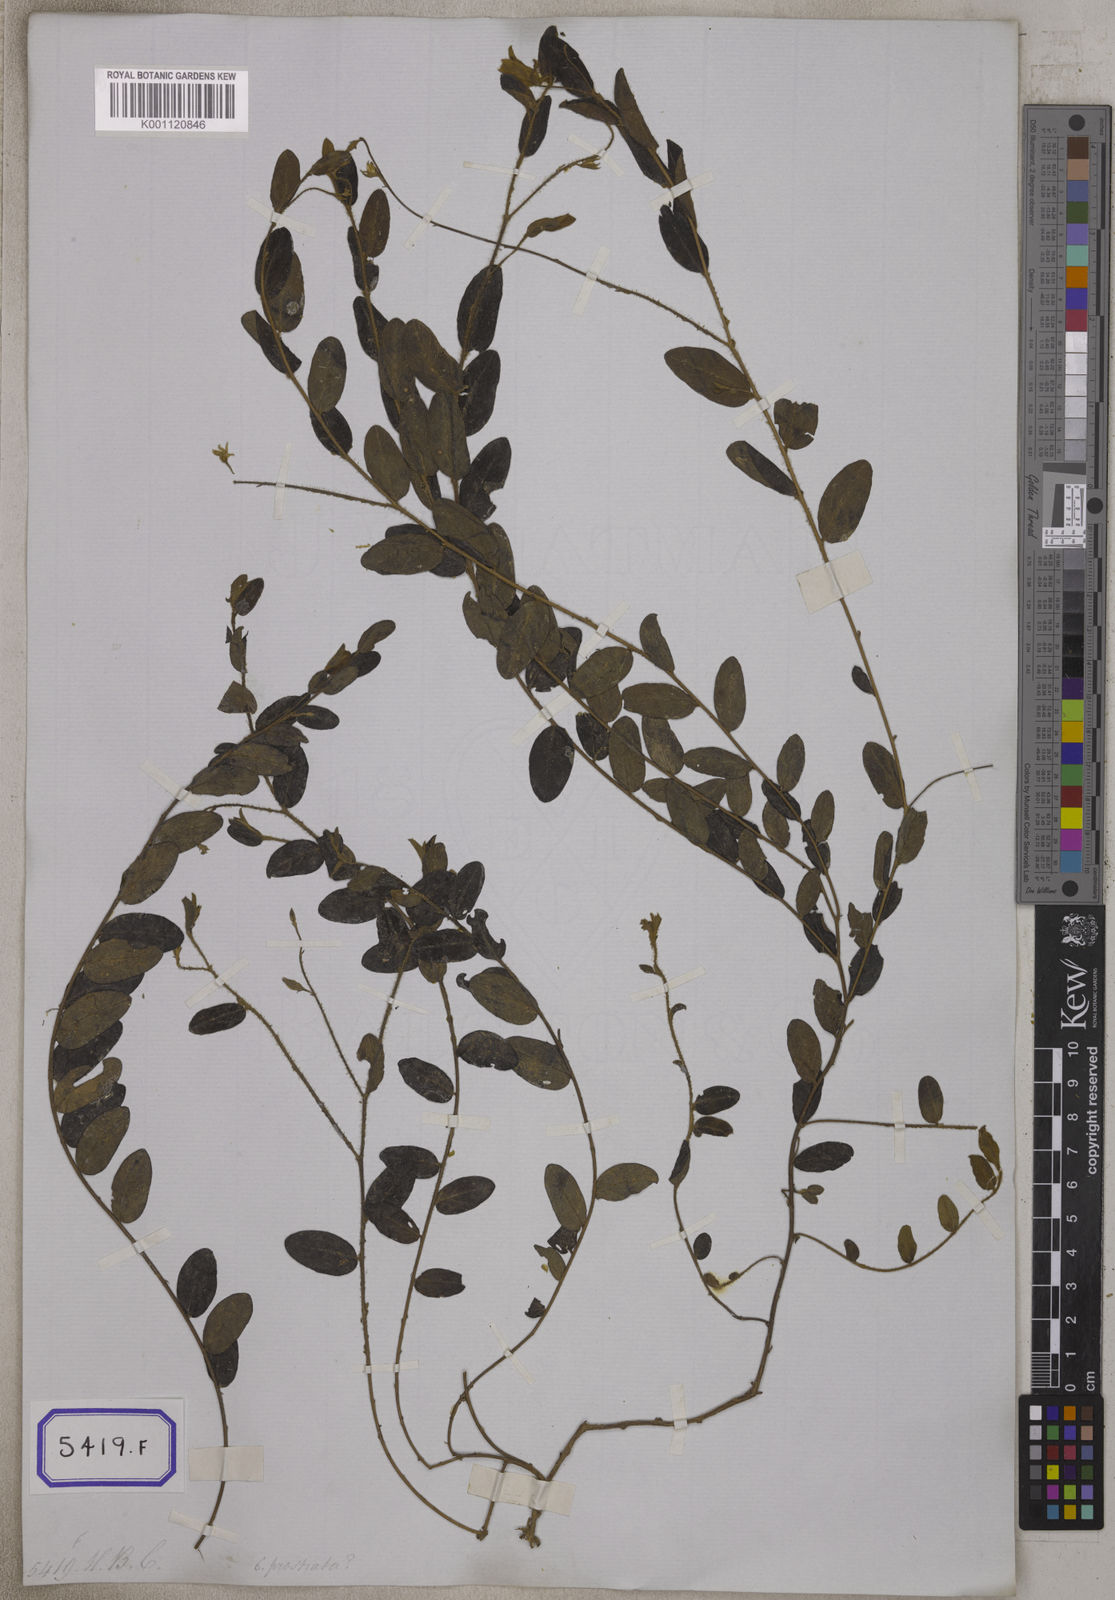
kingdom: Plantae
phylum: Tracheophyta
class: Magnoliopsida
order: Fabales
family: Fabaceae
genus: Crotalaria
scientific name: Crotalaria
